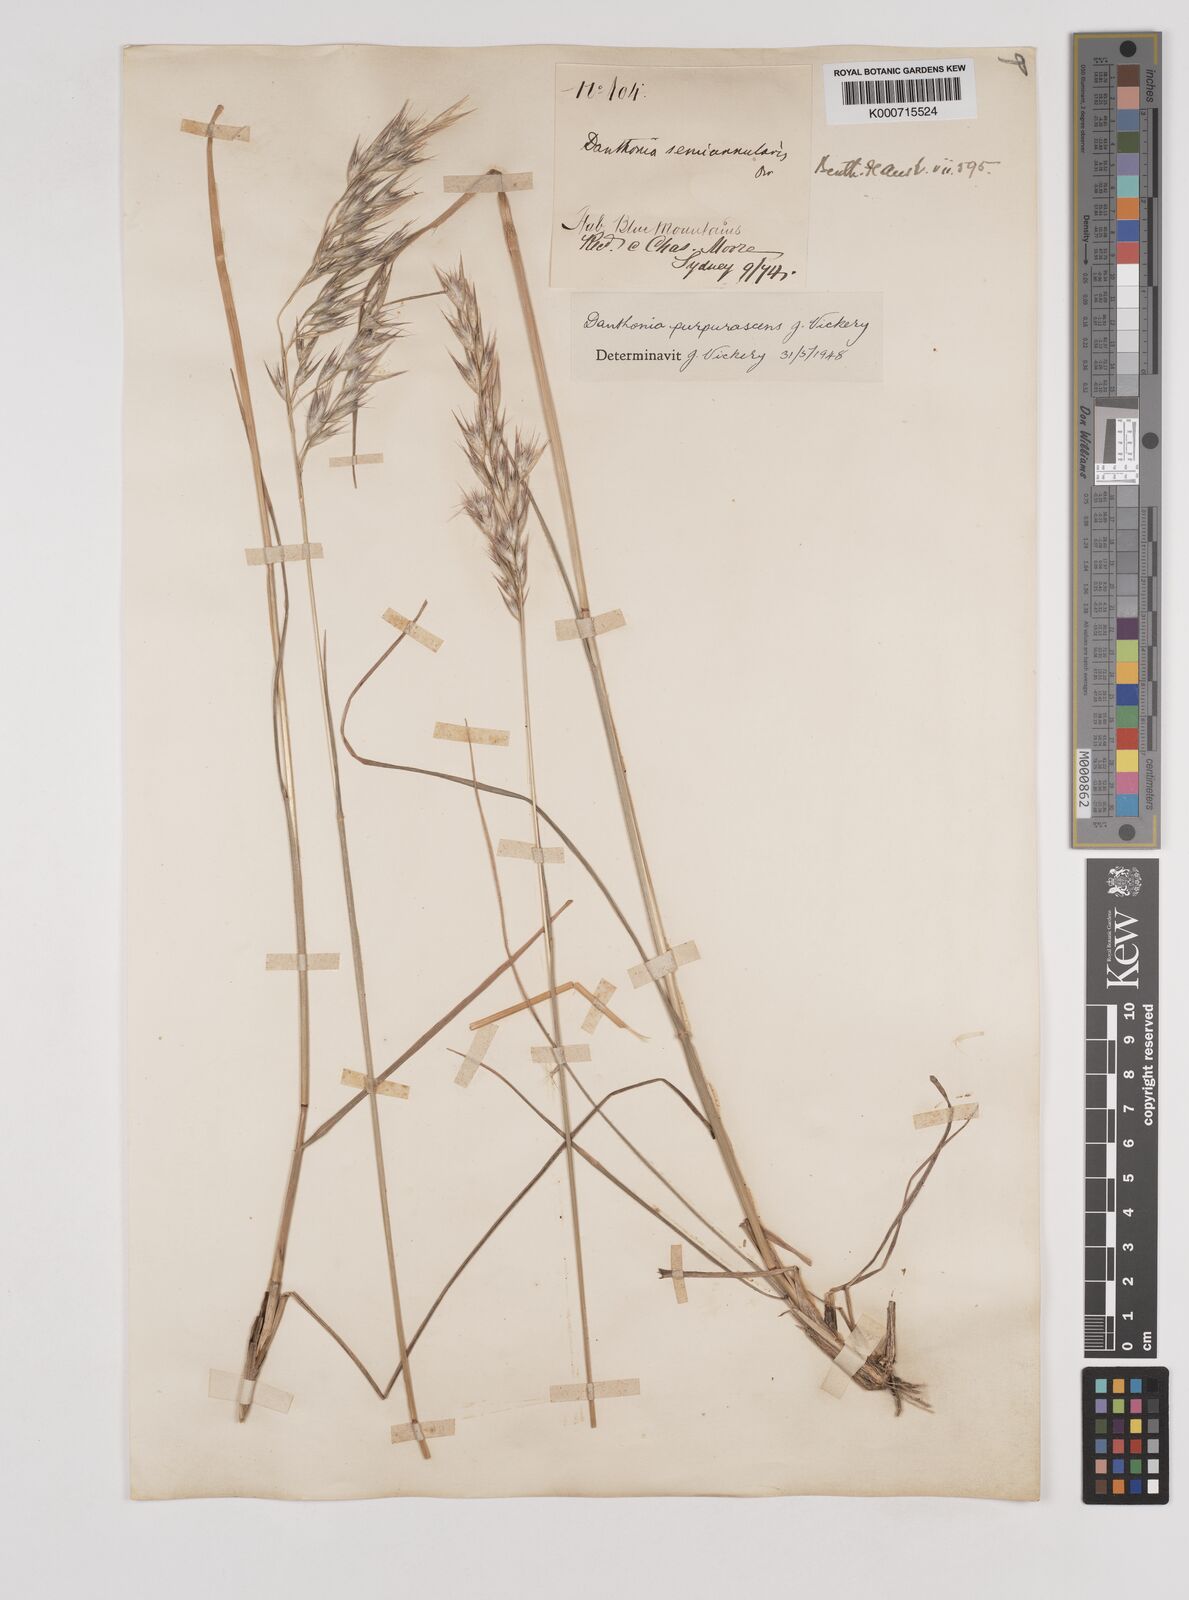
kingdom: Plantae
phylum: Tracheophyta
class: Liliopsida
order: Poales
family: Poaceae
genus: Rytidosperma
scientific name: Rytidosperma tenuius
